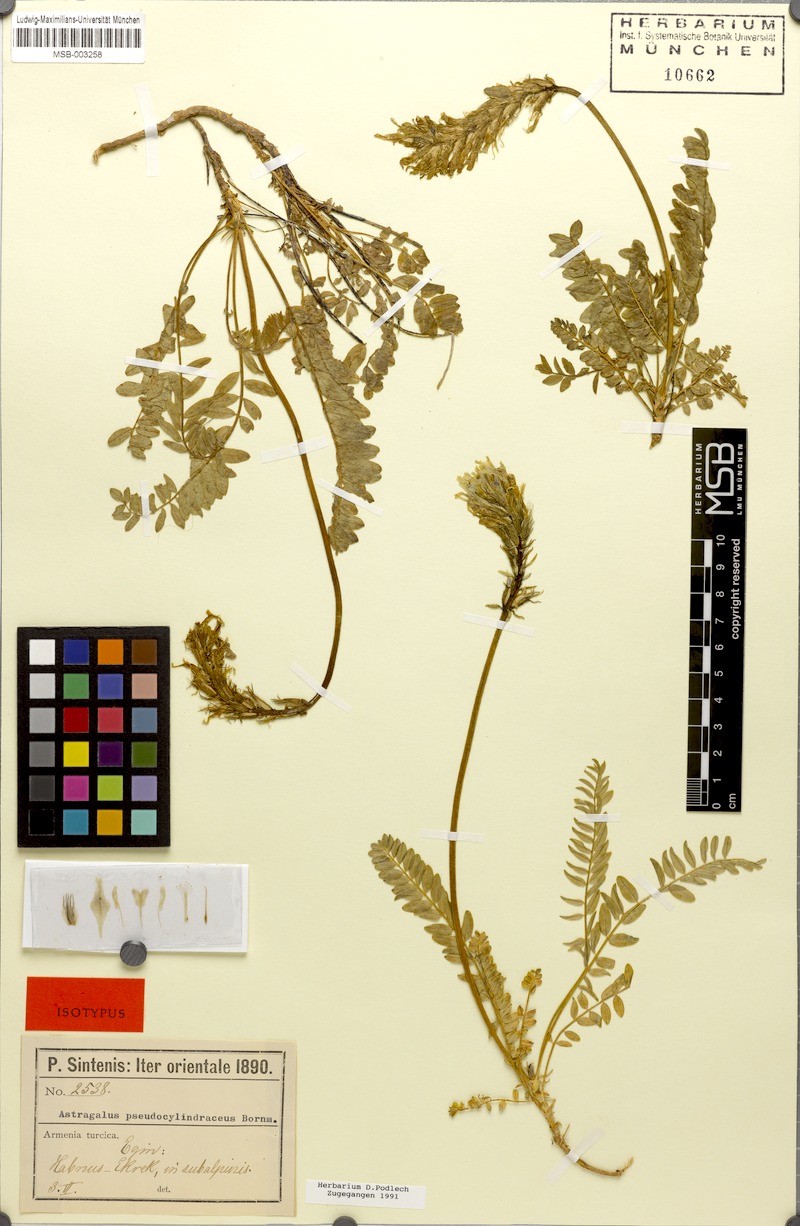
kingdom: Plantae
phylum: Tracheophyta
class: Magnoliopsida
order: Fabales
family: Fabaceae
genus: Astragalus
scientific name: Astragalus pseudocylindraceus
